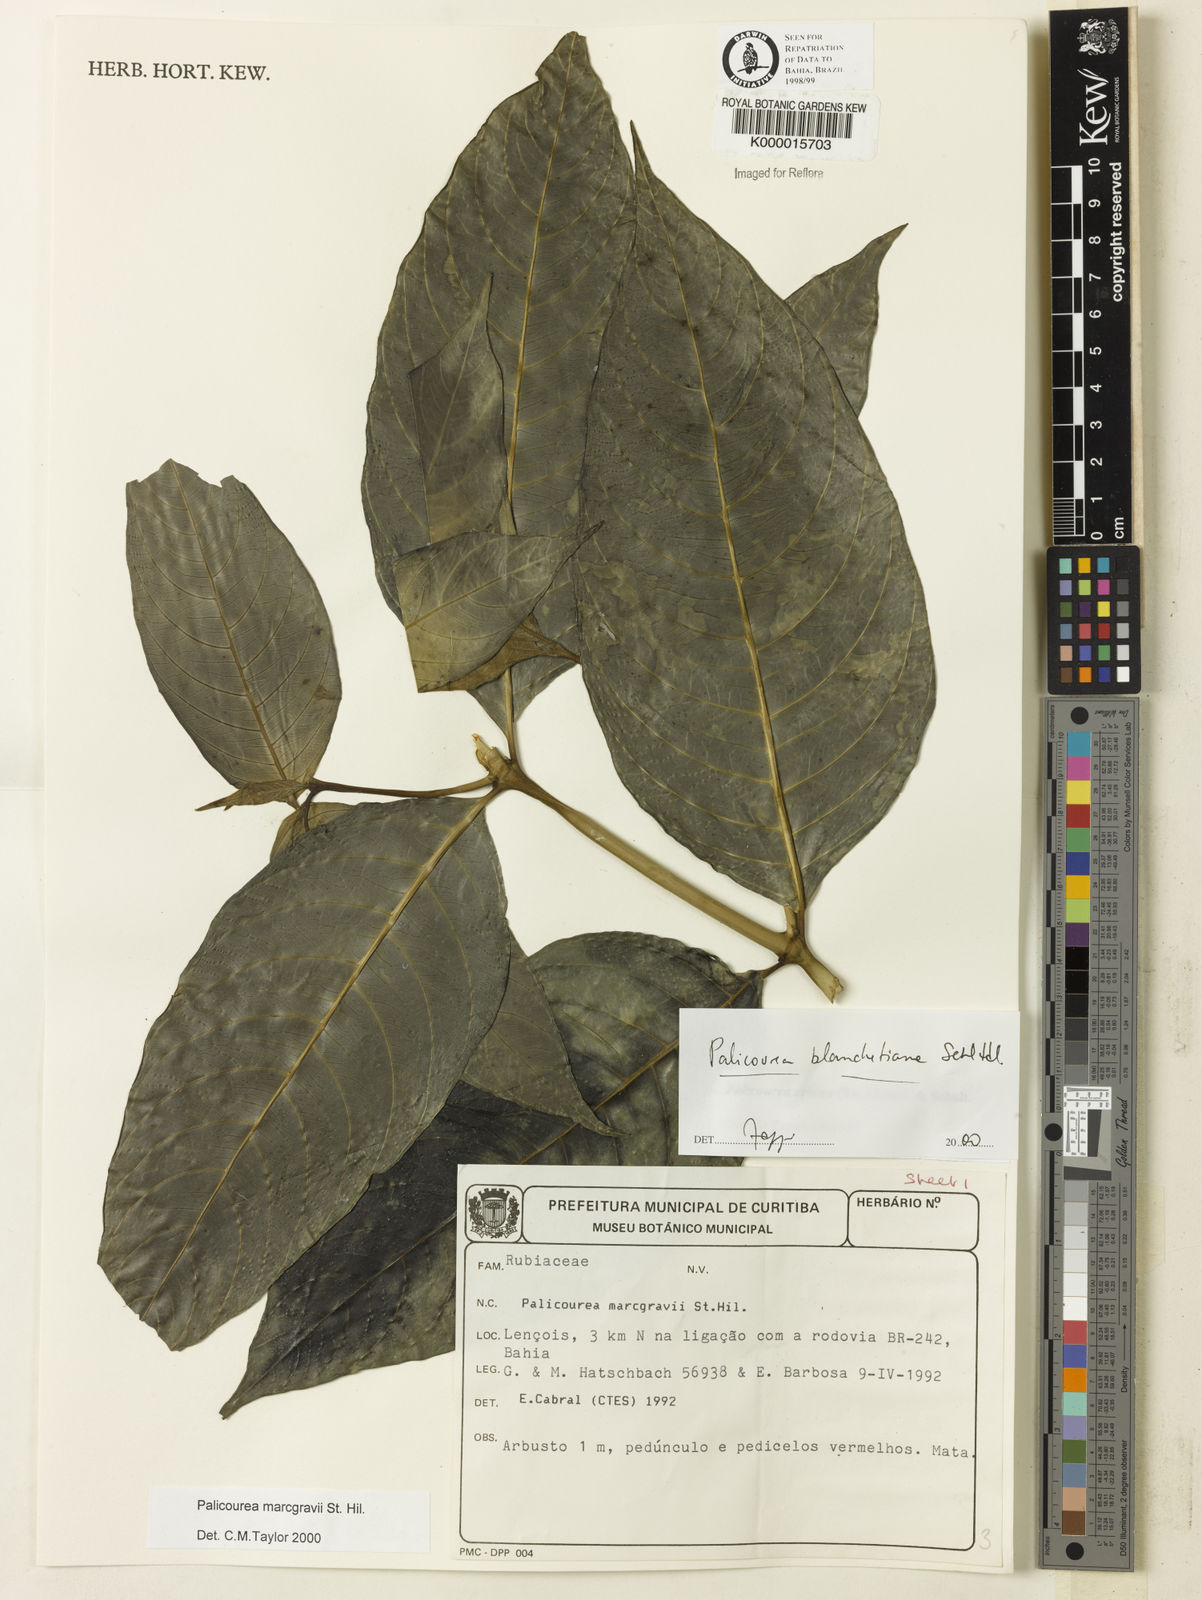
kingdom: Plantae
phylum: Tracheophyta
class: Magnoliopsida
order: Gentianales
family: Rubiaceae
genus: Palicourea
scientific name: Palicourea blanchetiana
